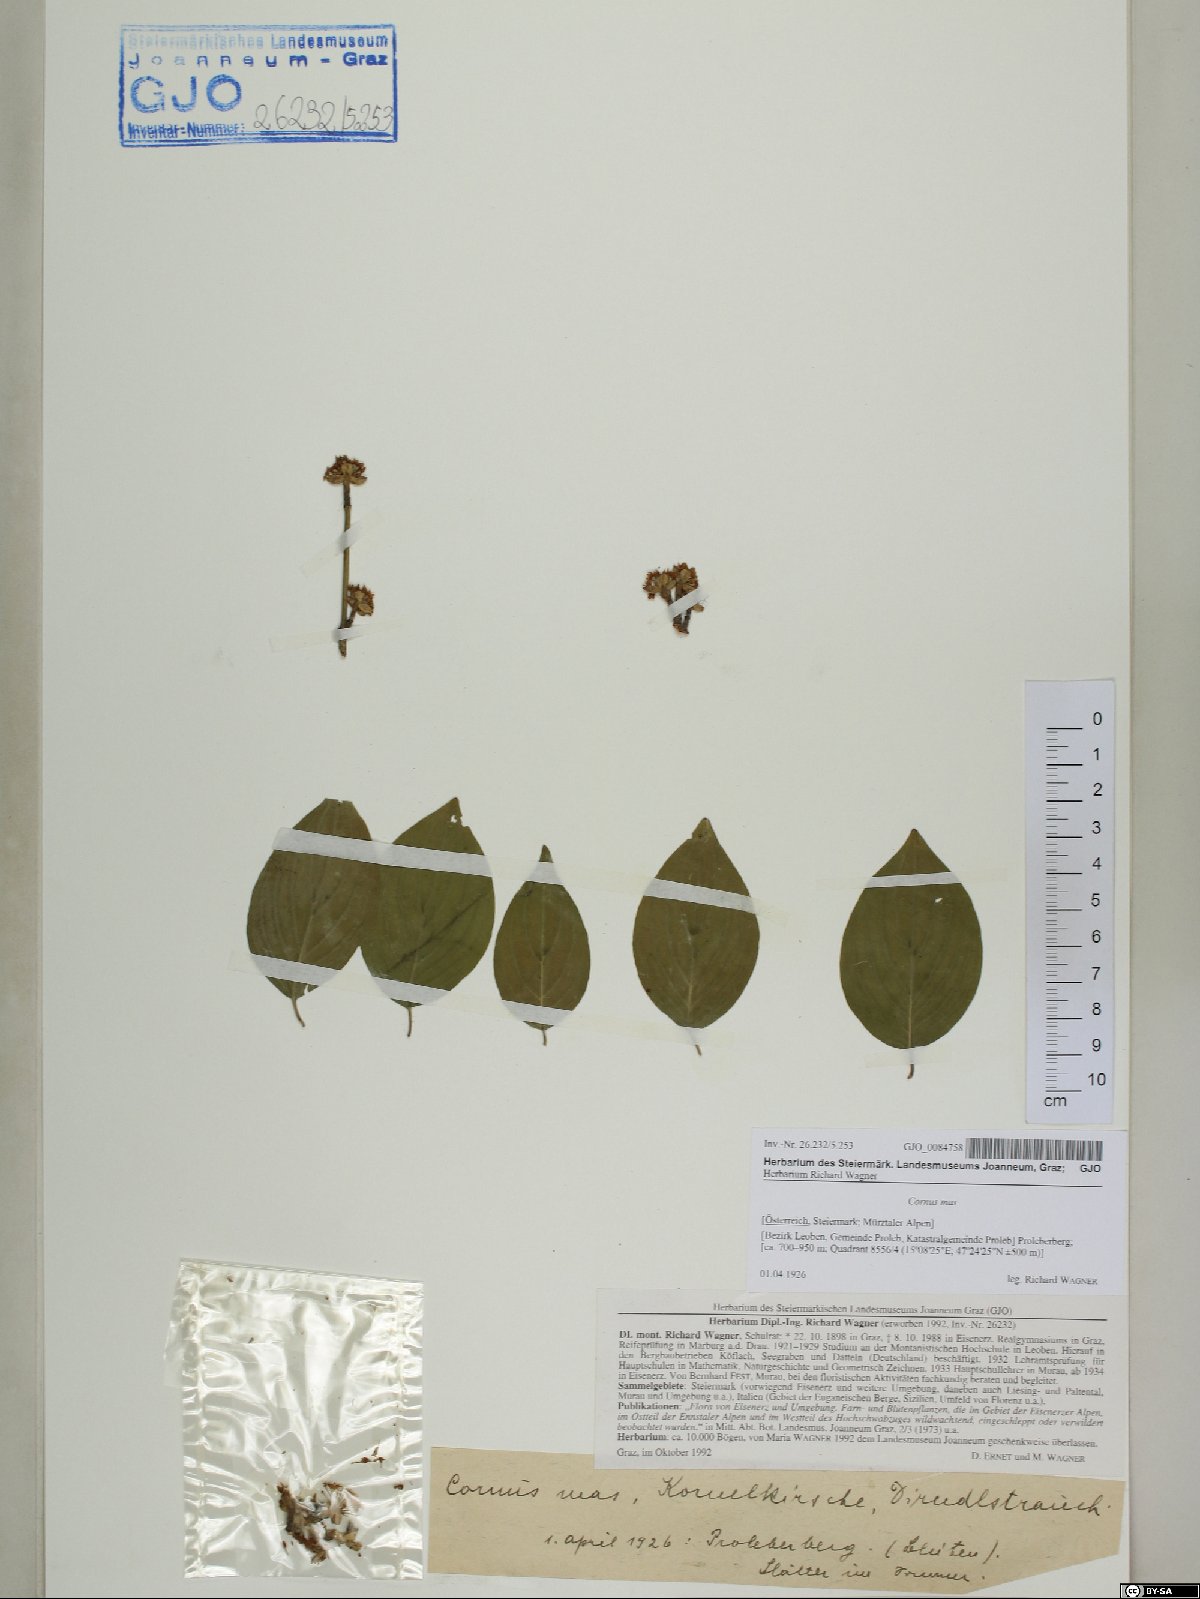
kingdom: Plantae
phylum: Tracheophyta
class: Magnoliopsida
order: Cornales
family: Cornaceae
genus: Cornus
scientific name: Cornus mas
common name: Cornelian-cherry
